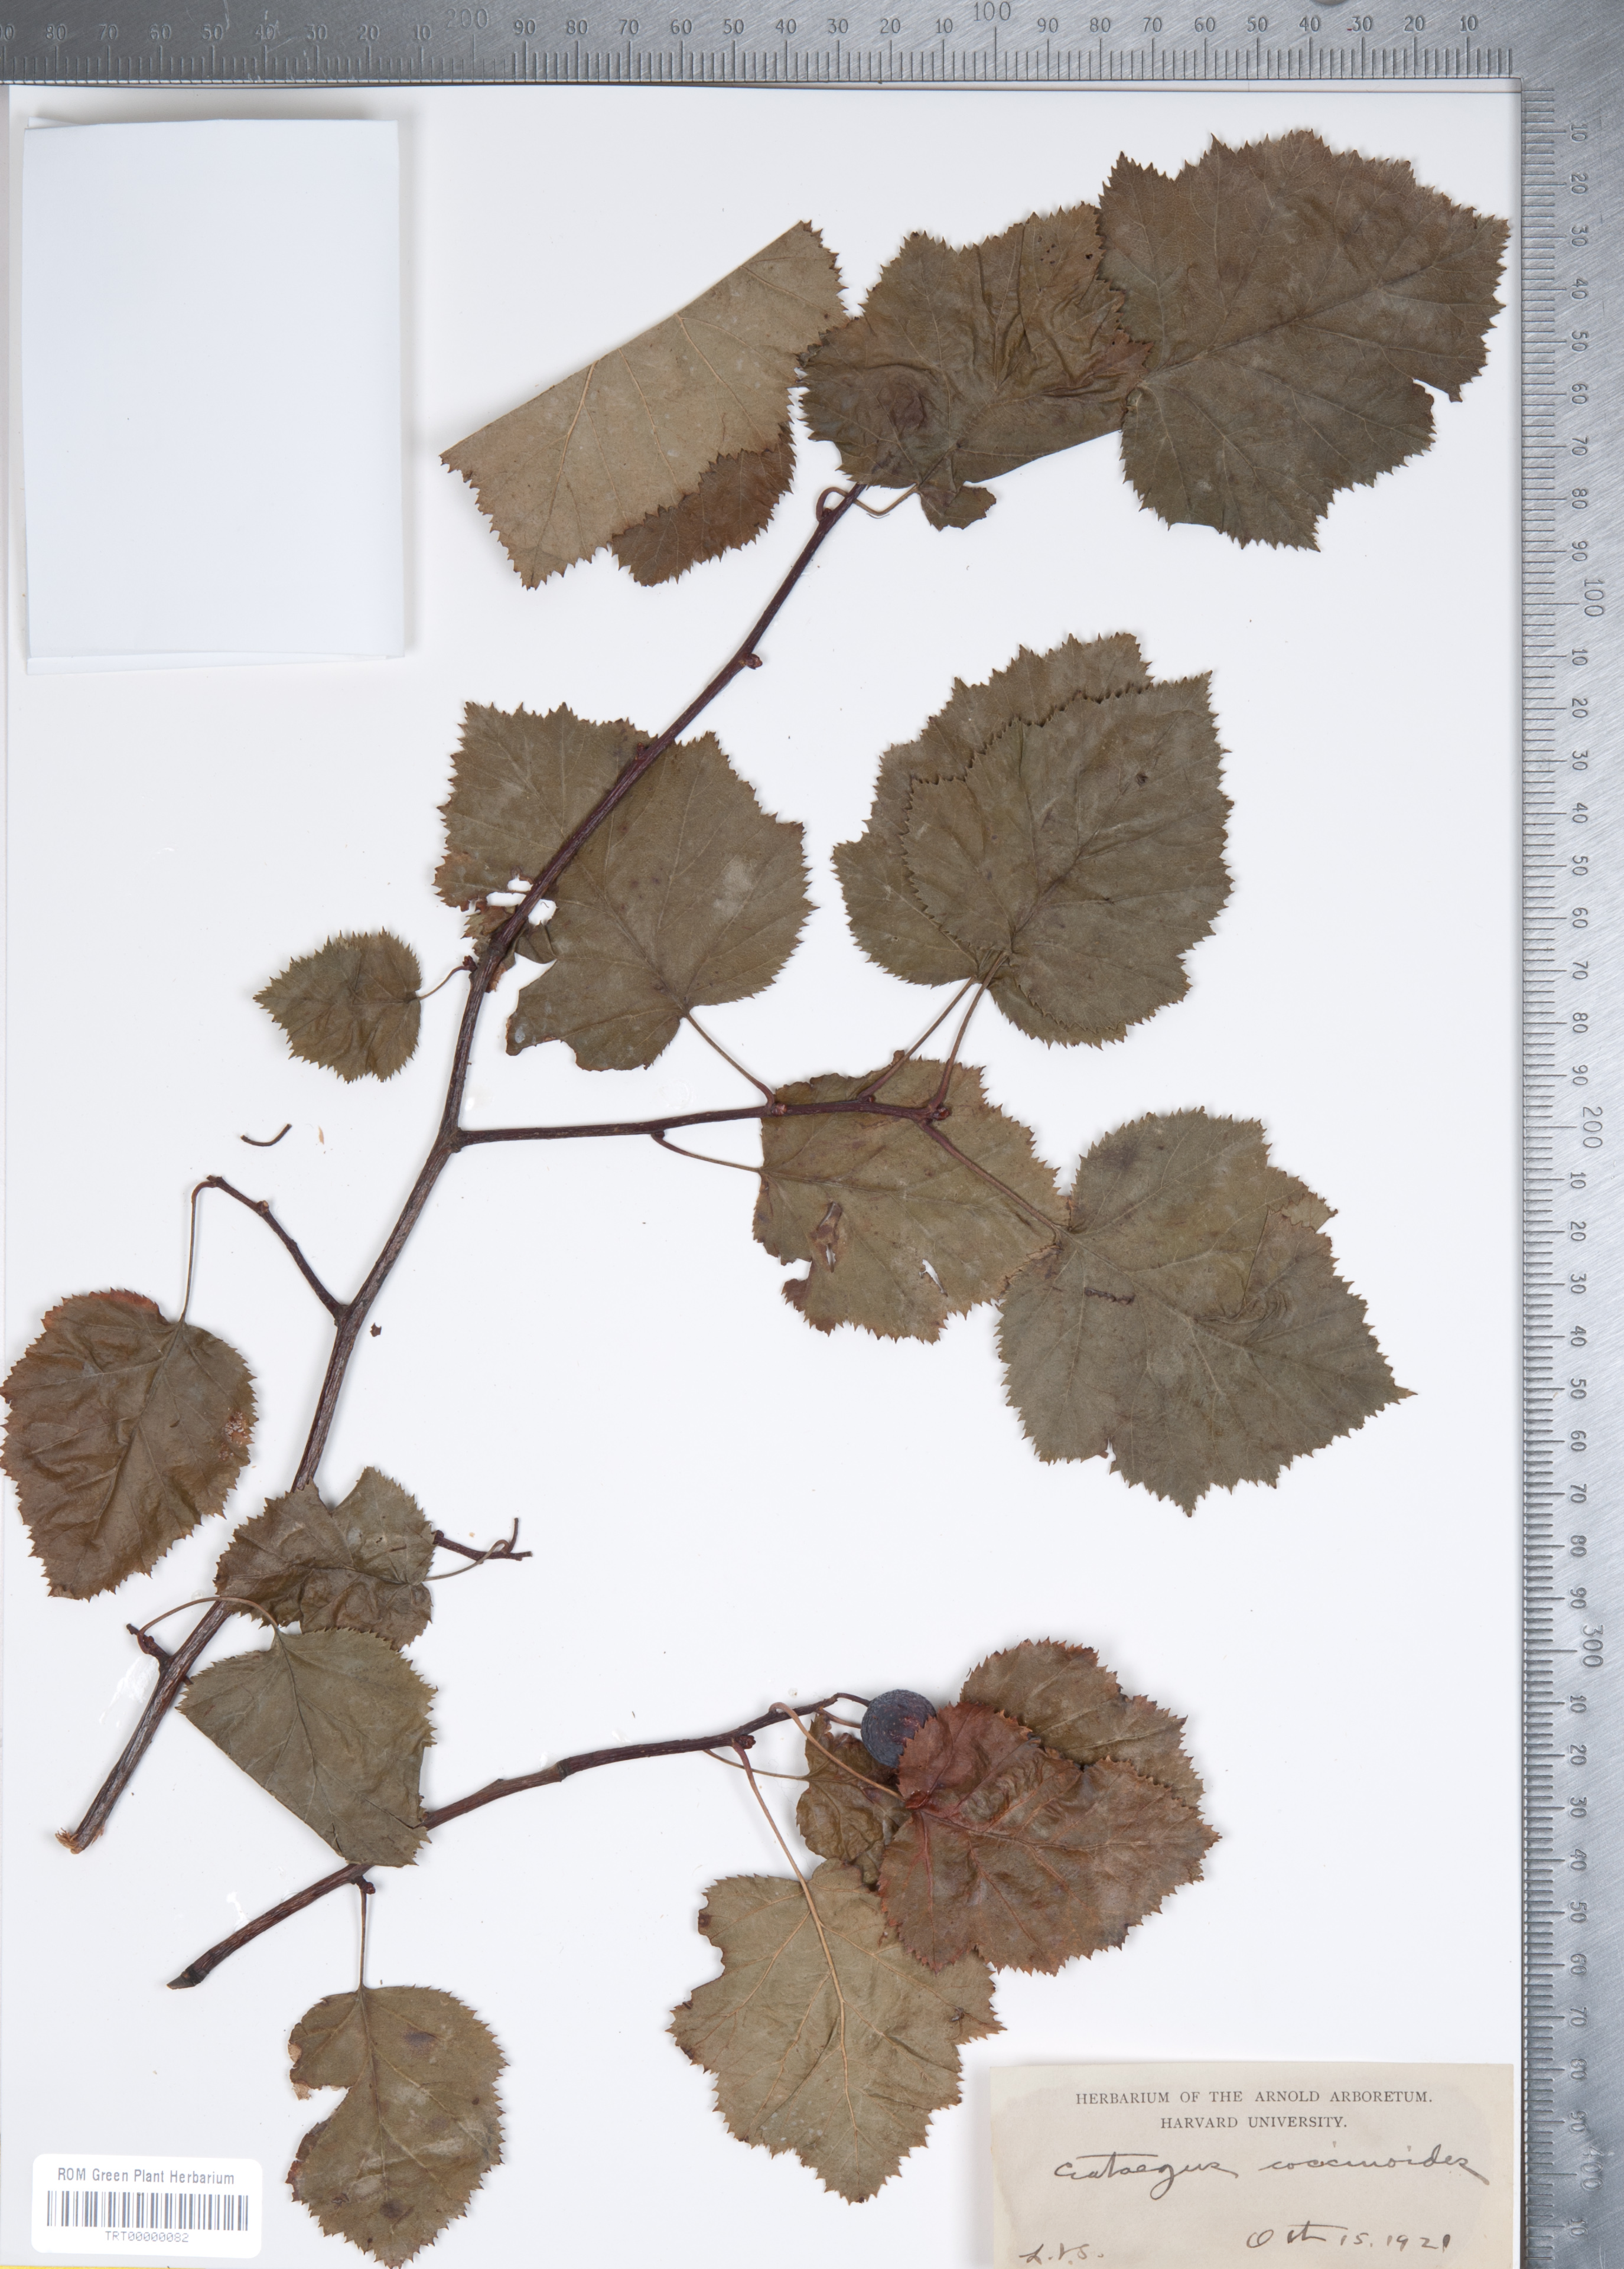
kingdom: Plantae
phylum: Tracheophyta
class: Magnoliopsida
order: Rosales
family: Rosaceae
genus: Crataegus
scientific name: Crataegus coccinioides
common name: Large-flowered cockspurthorn
